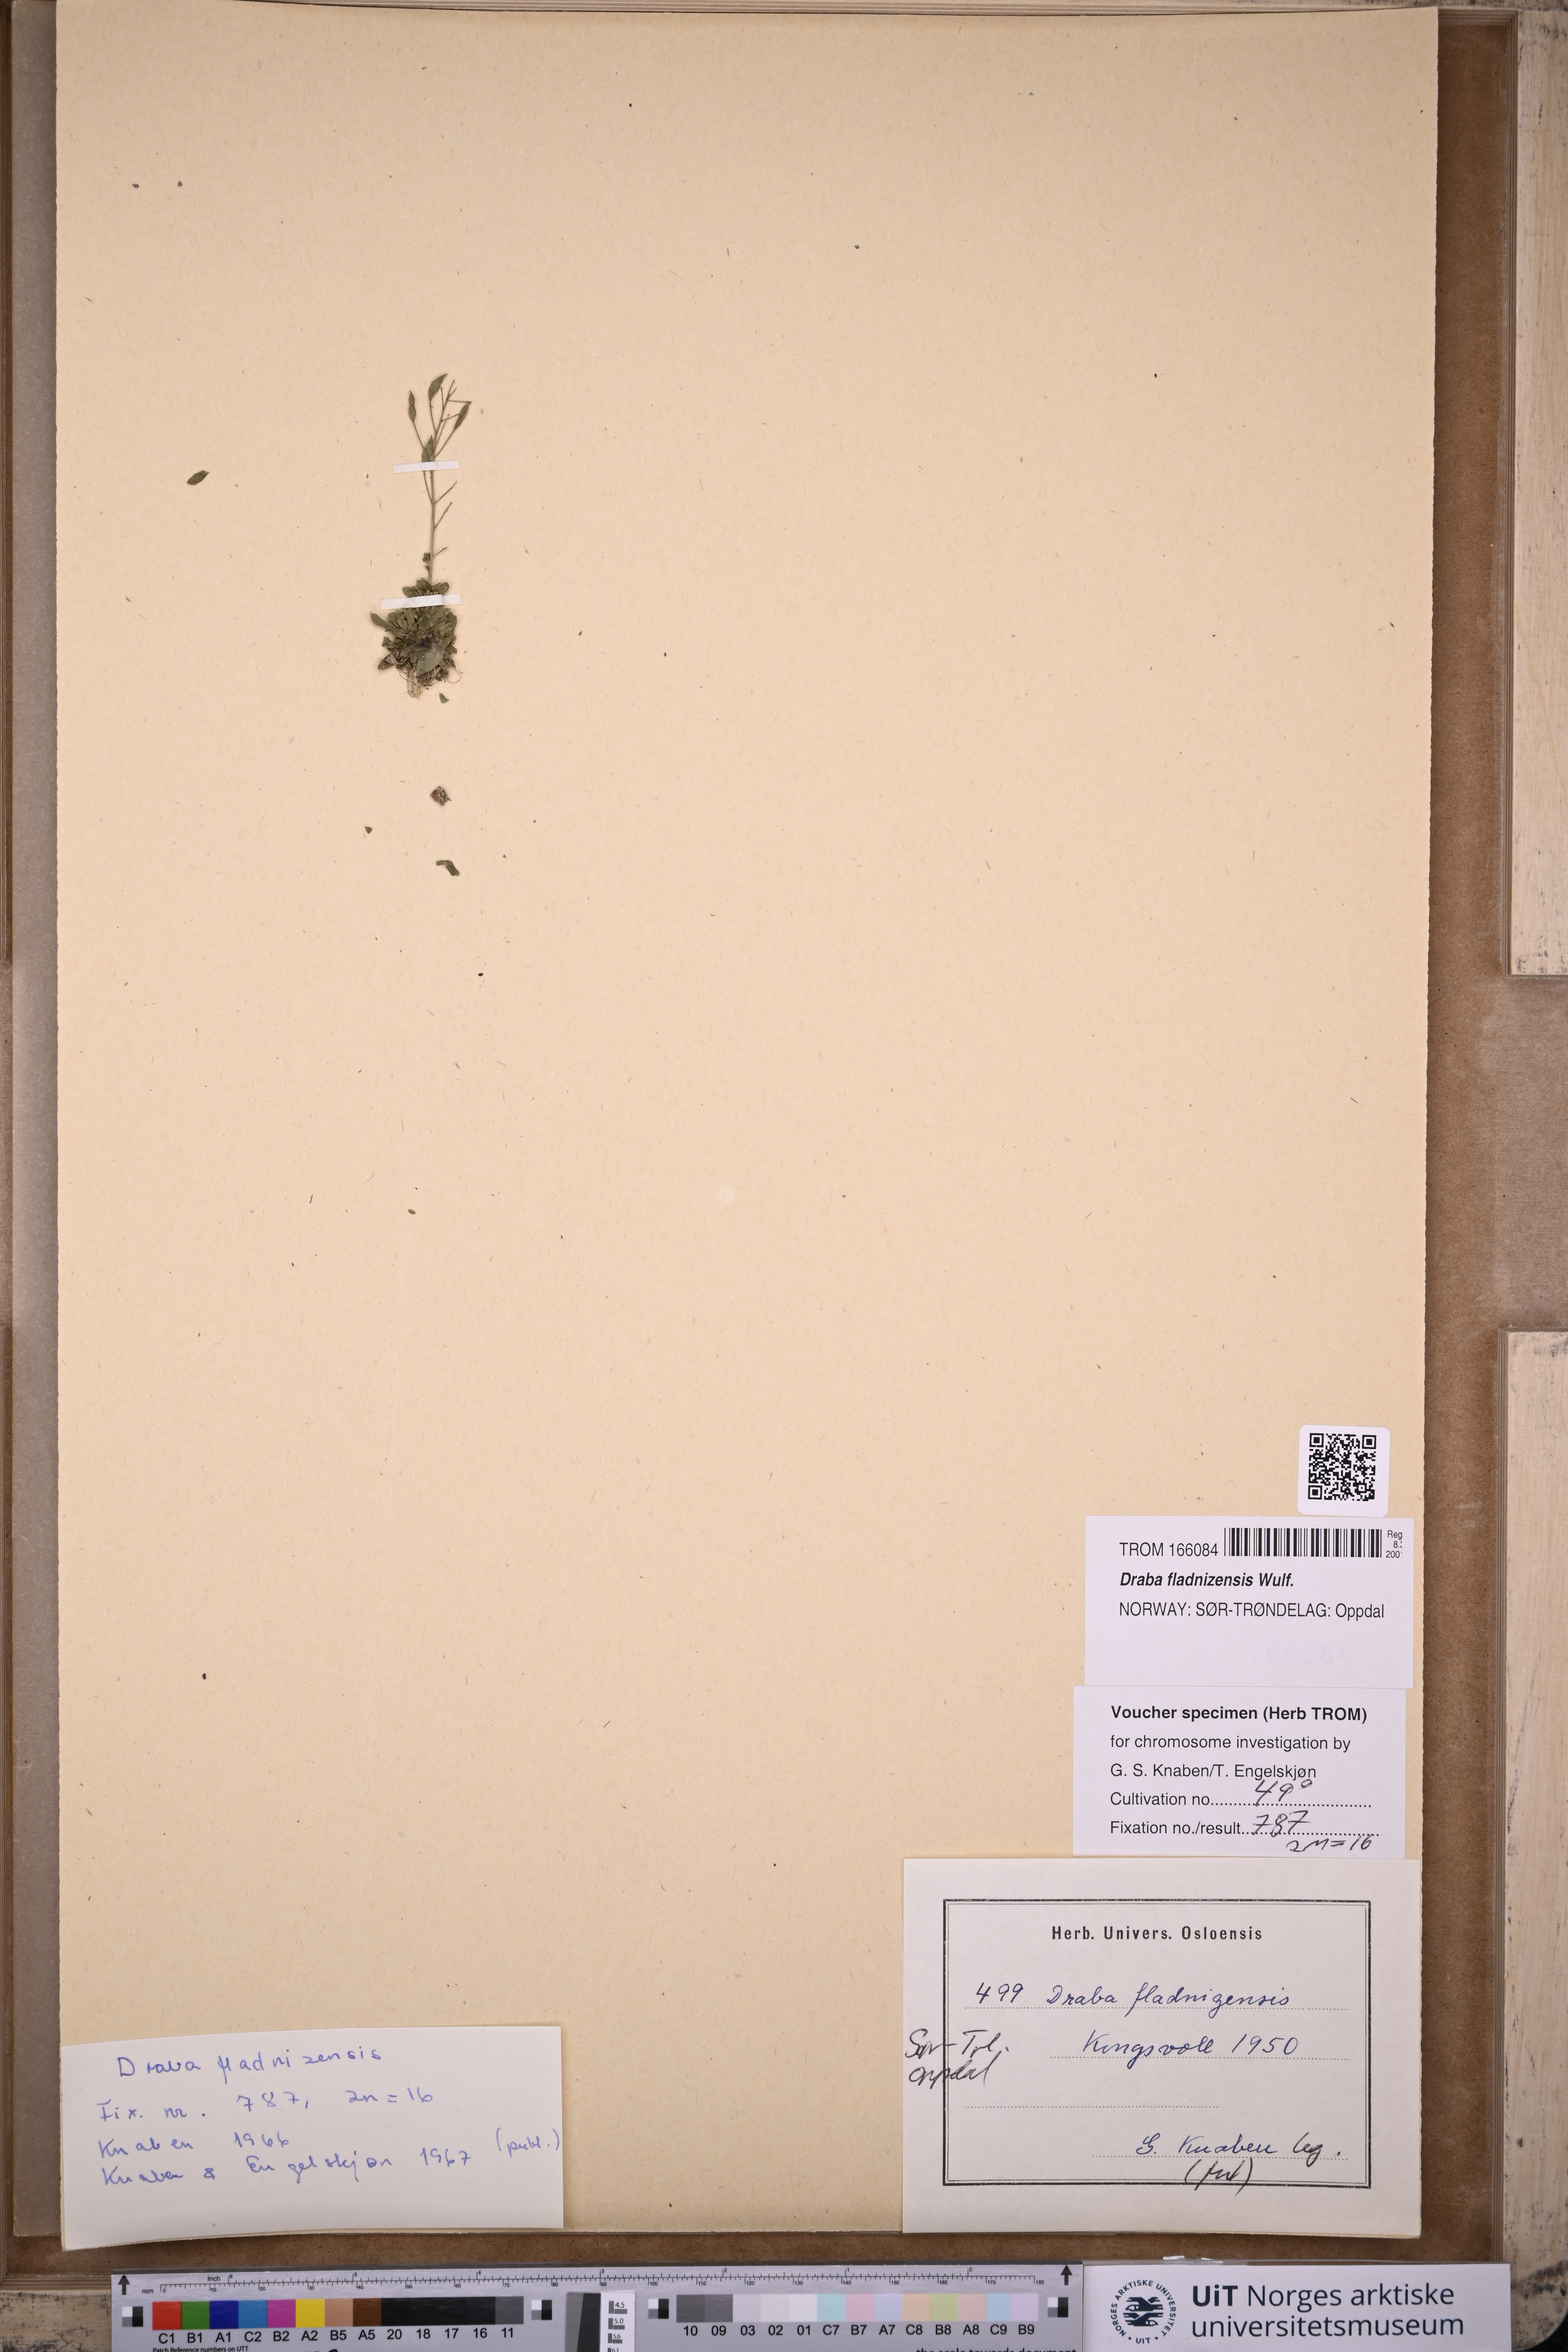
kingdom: Plantae
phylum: Tracheophyta
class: Magnoliopsida
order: Brassicales
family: Brassicaceae
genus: Draba
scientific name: Draba fladnizensis
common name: Austrian draba
